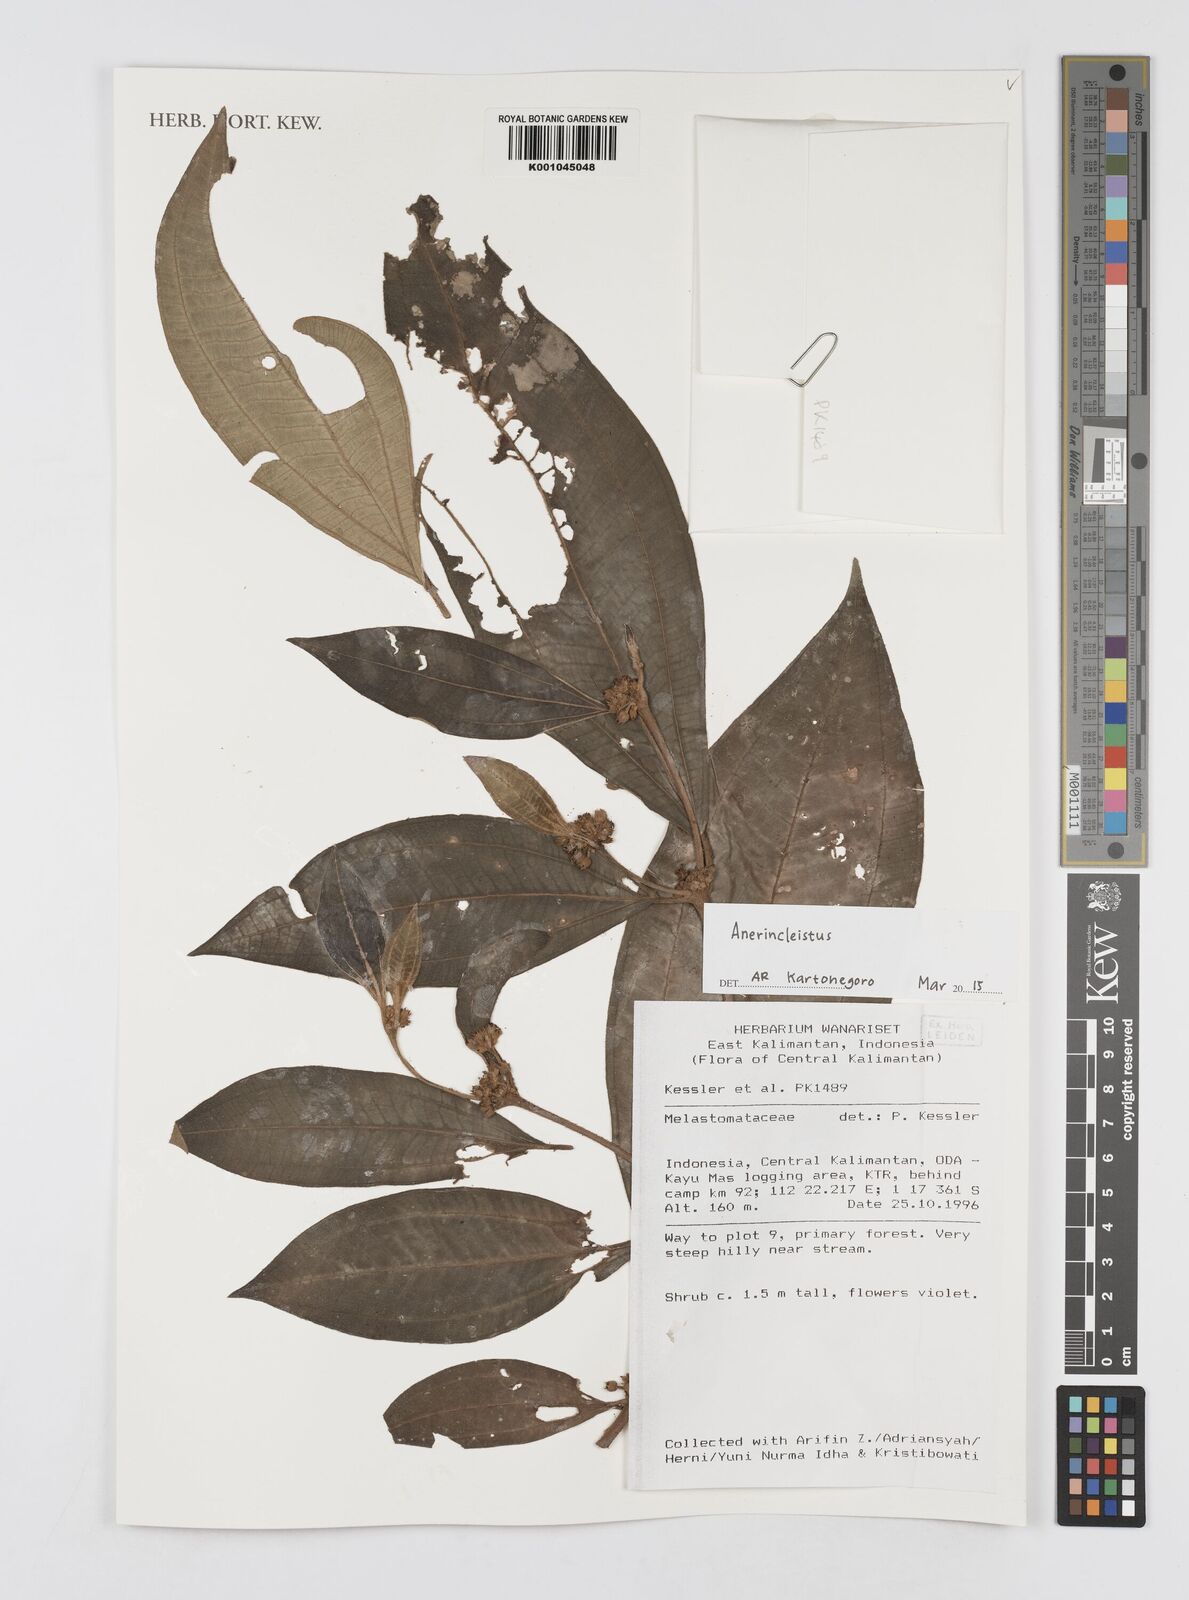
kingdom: Plantae
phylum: Tracheophyta
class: Magnoliopsida
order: Myrtales
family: Melastomataceae
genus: Anerincleistus
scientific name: Anerincleistus
